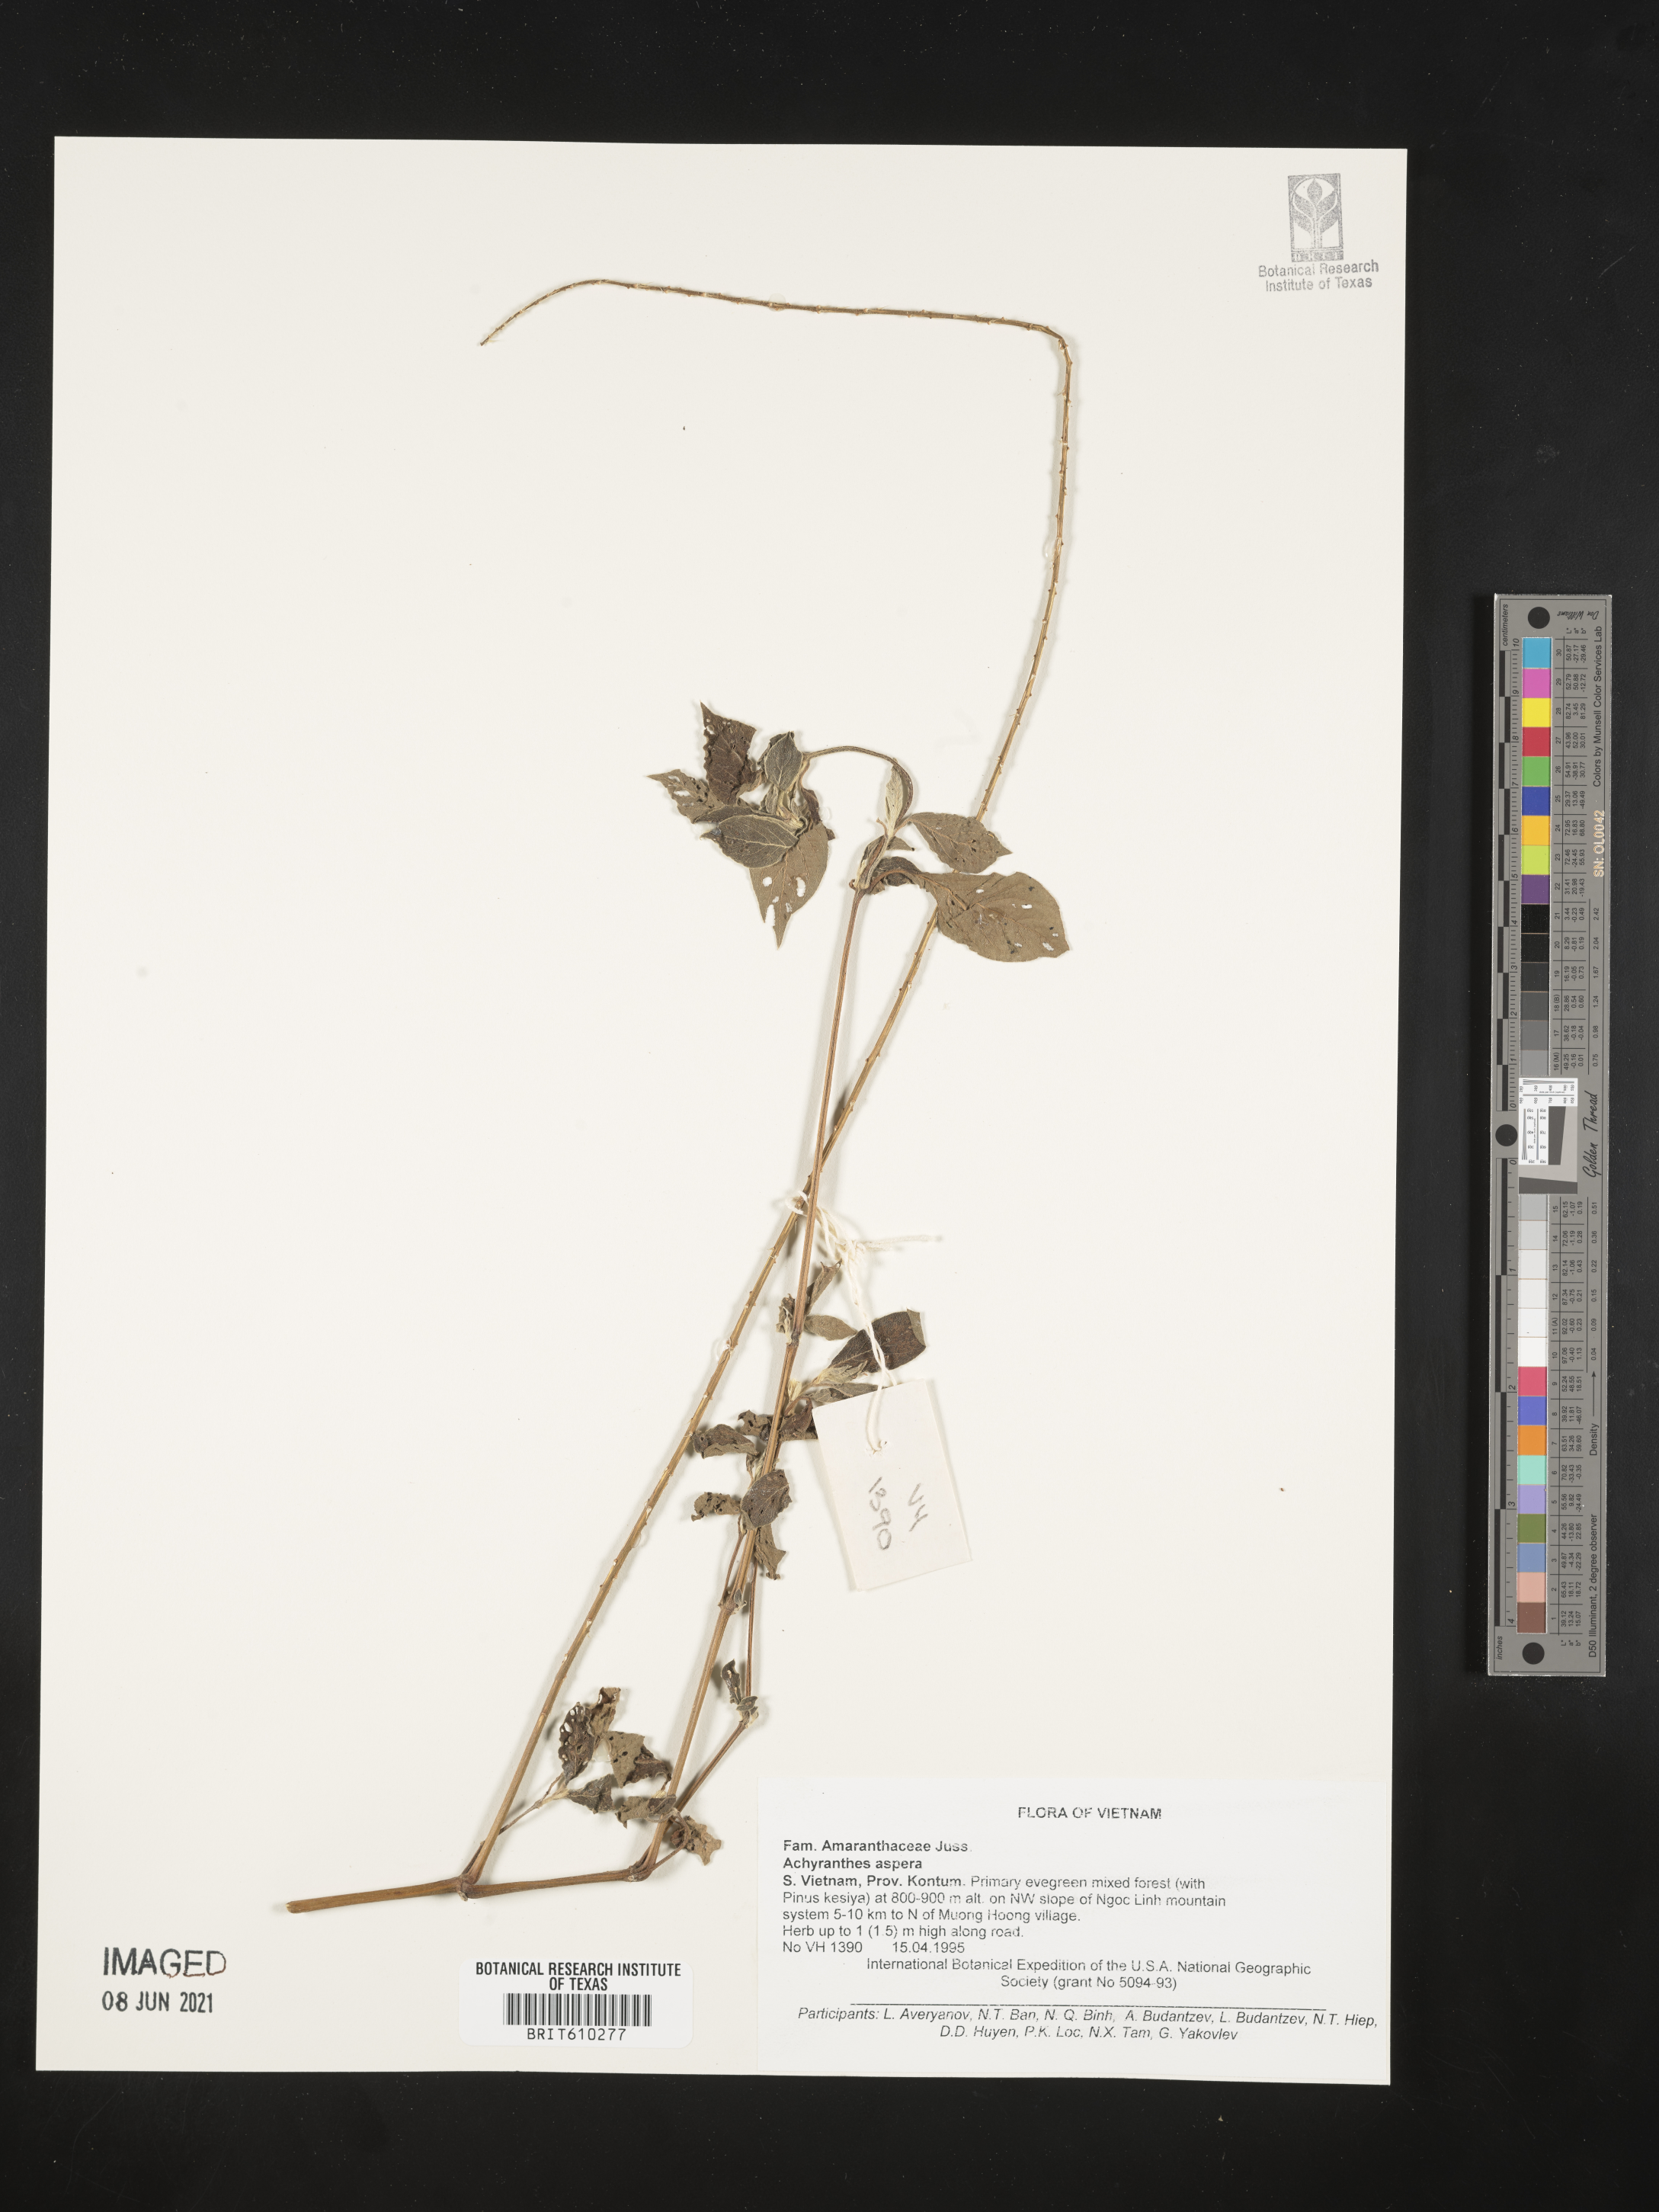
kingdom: Plantae
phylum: Tracheophyta
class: Magnoliopsida
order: Caryophyllales
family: Amaranthaceae
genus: Achyranthes
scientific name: Achyranthes aspera
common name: Devil's horsewhip
